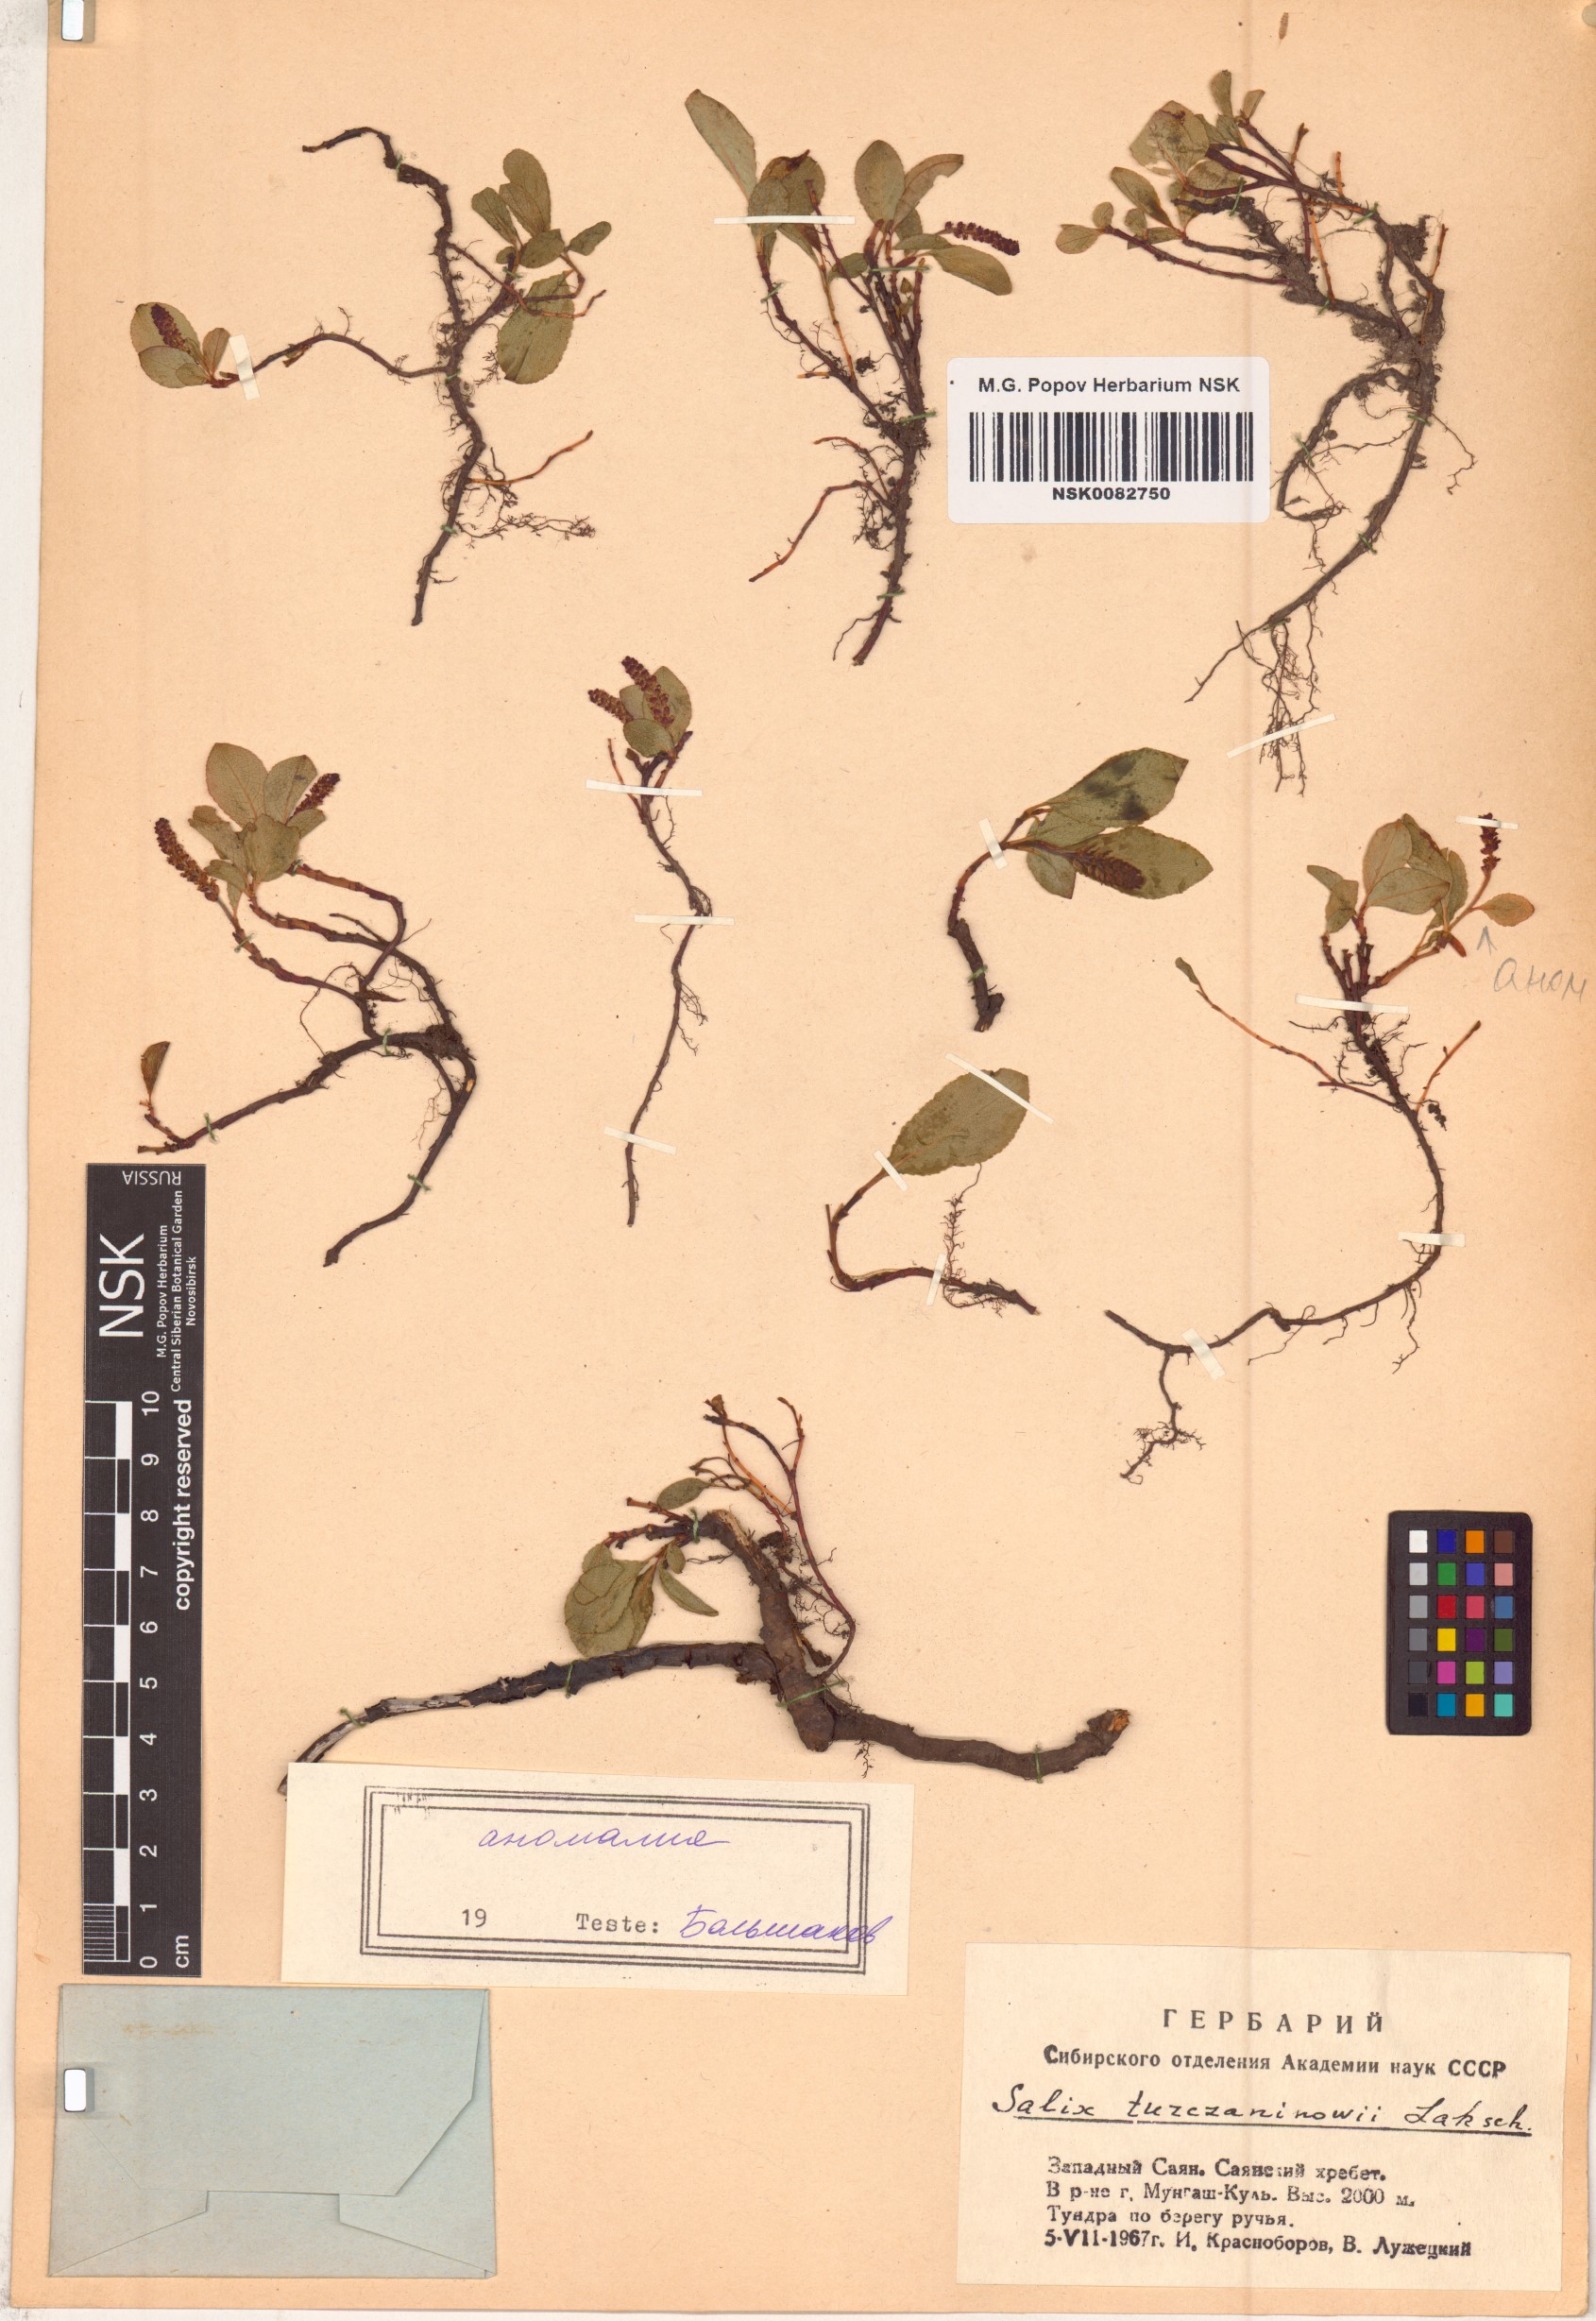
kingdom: Plantae
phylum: Tracheophyta
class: Magnoliopsida
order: Malpighiales
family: Salicaceae
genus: Salix
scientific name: Salix turczaninowii
